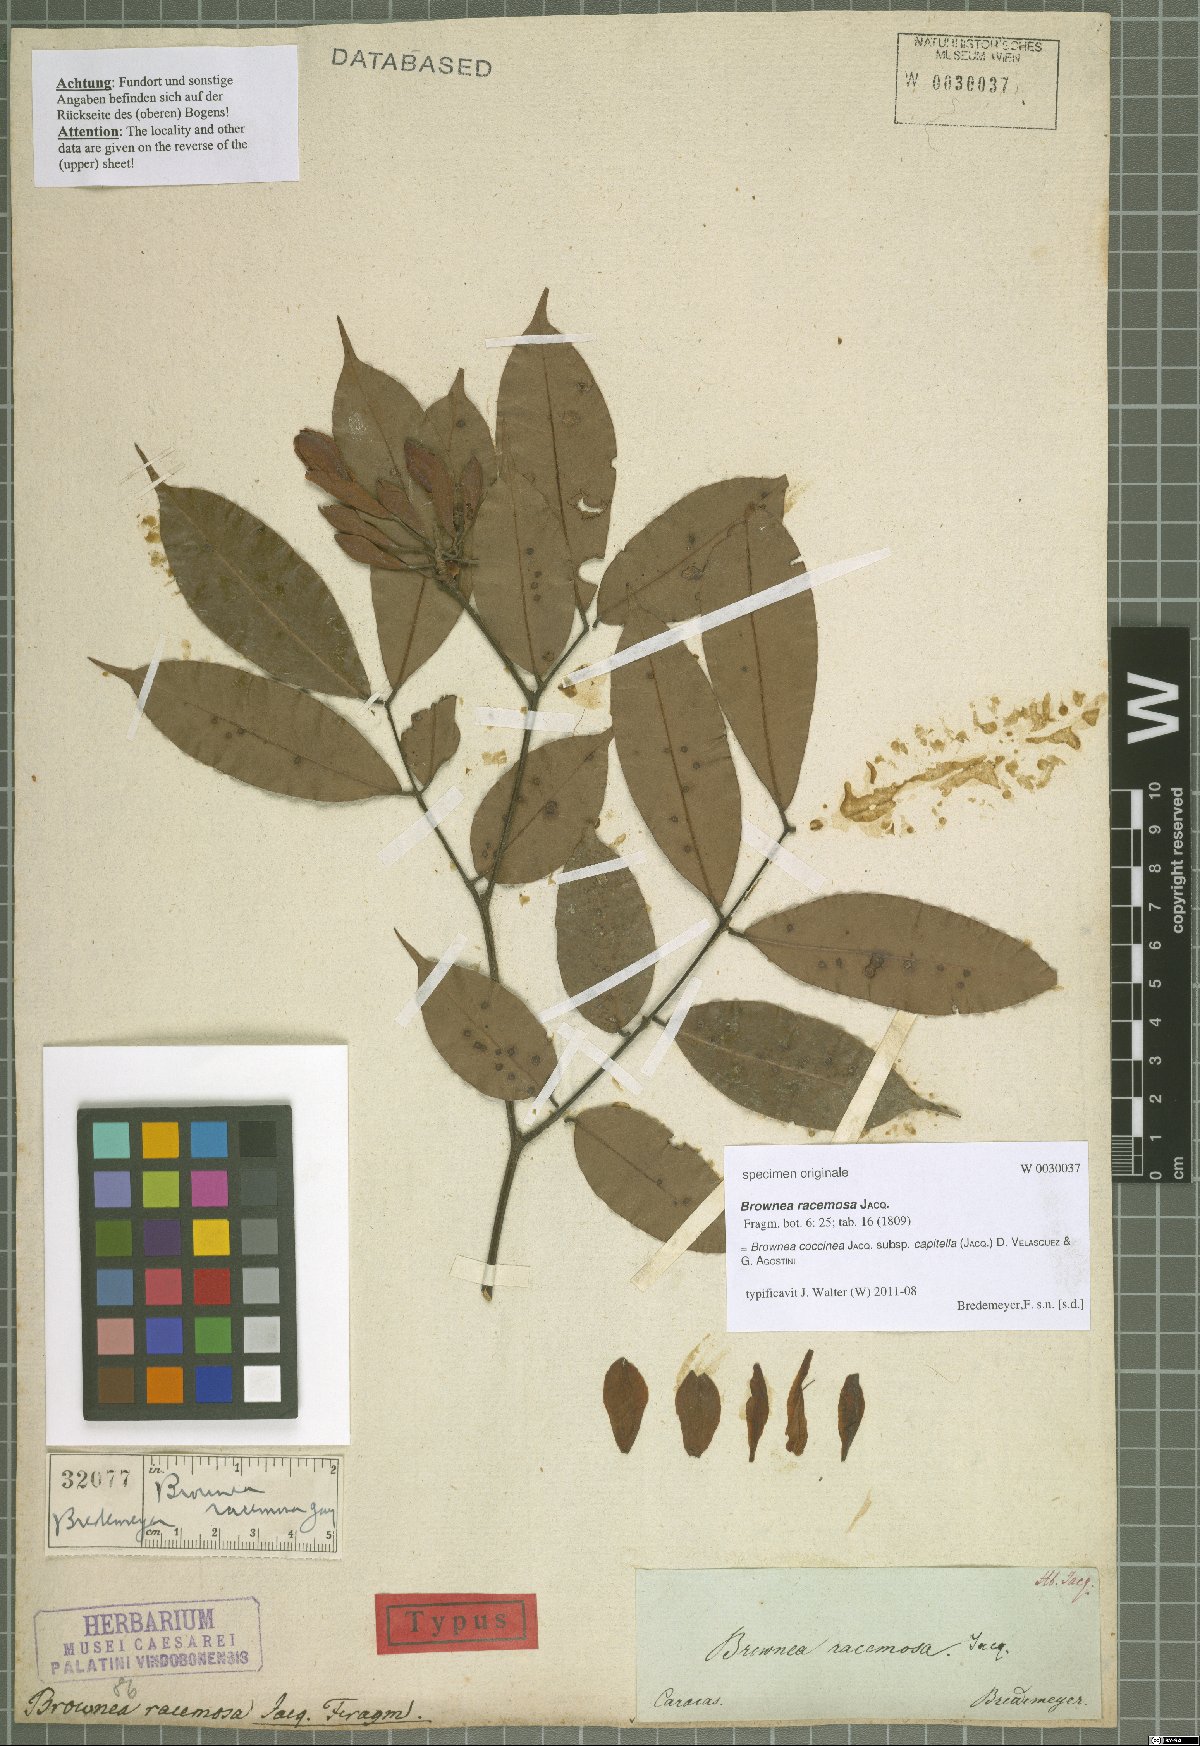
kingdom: Plantae
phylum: Tracheophyta
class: Magnoliopsida
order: Fabales
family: Fabaceae
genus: Brownea
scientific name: Brownea coccinea
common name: Scarlet flame-bean
